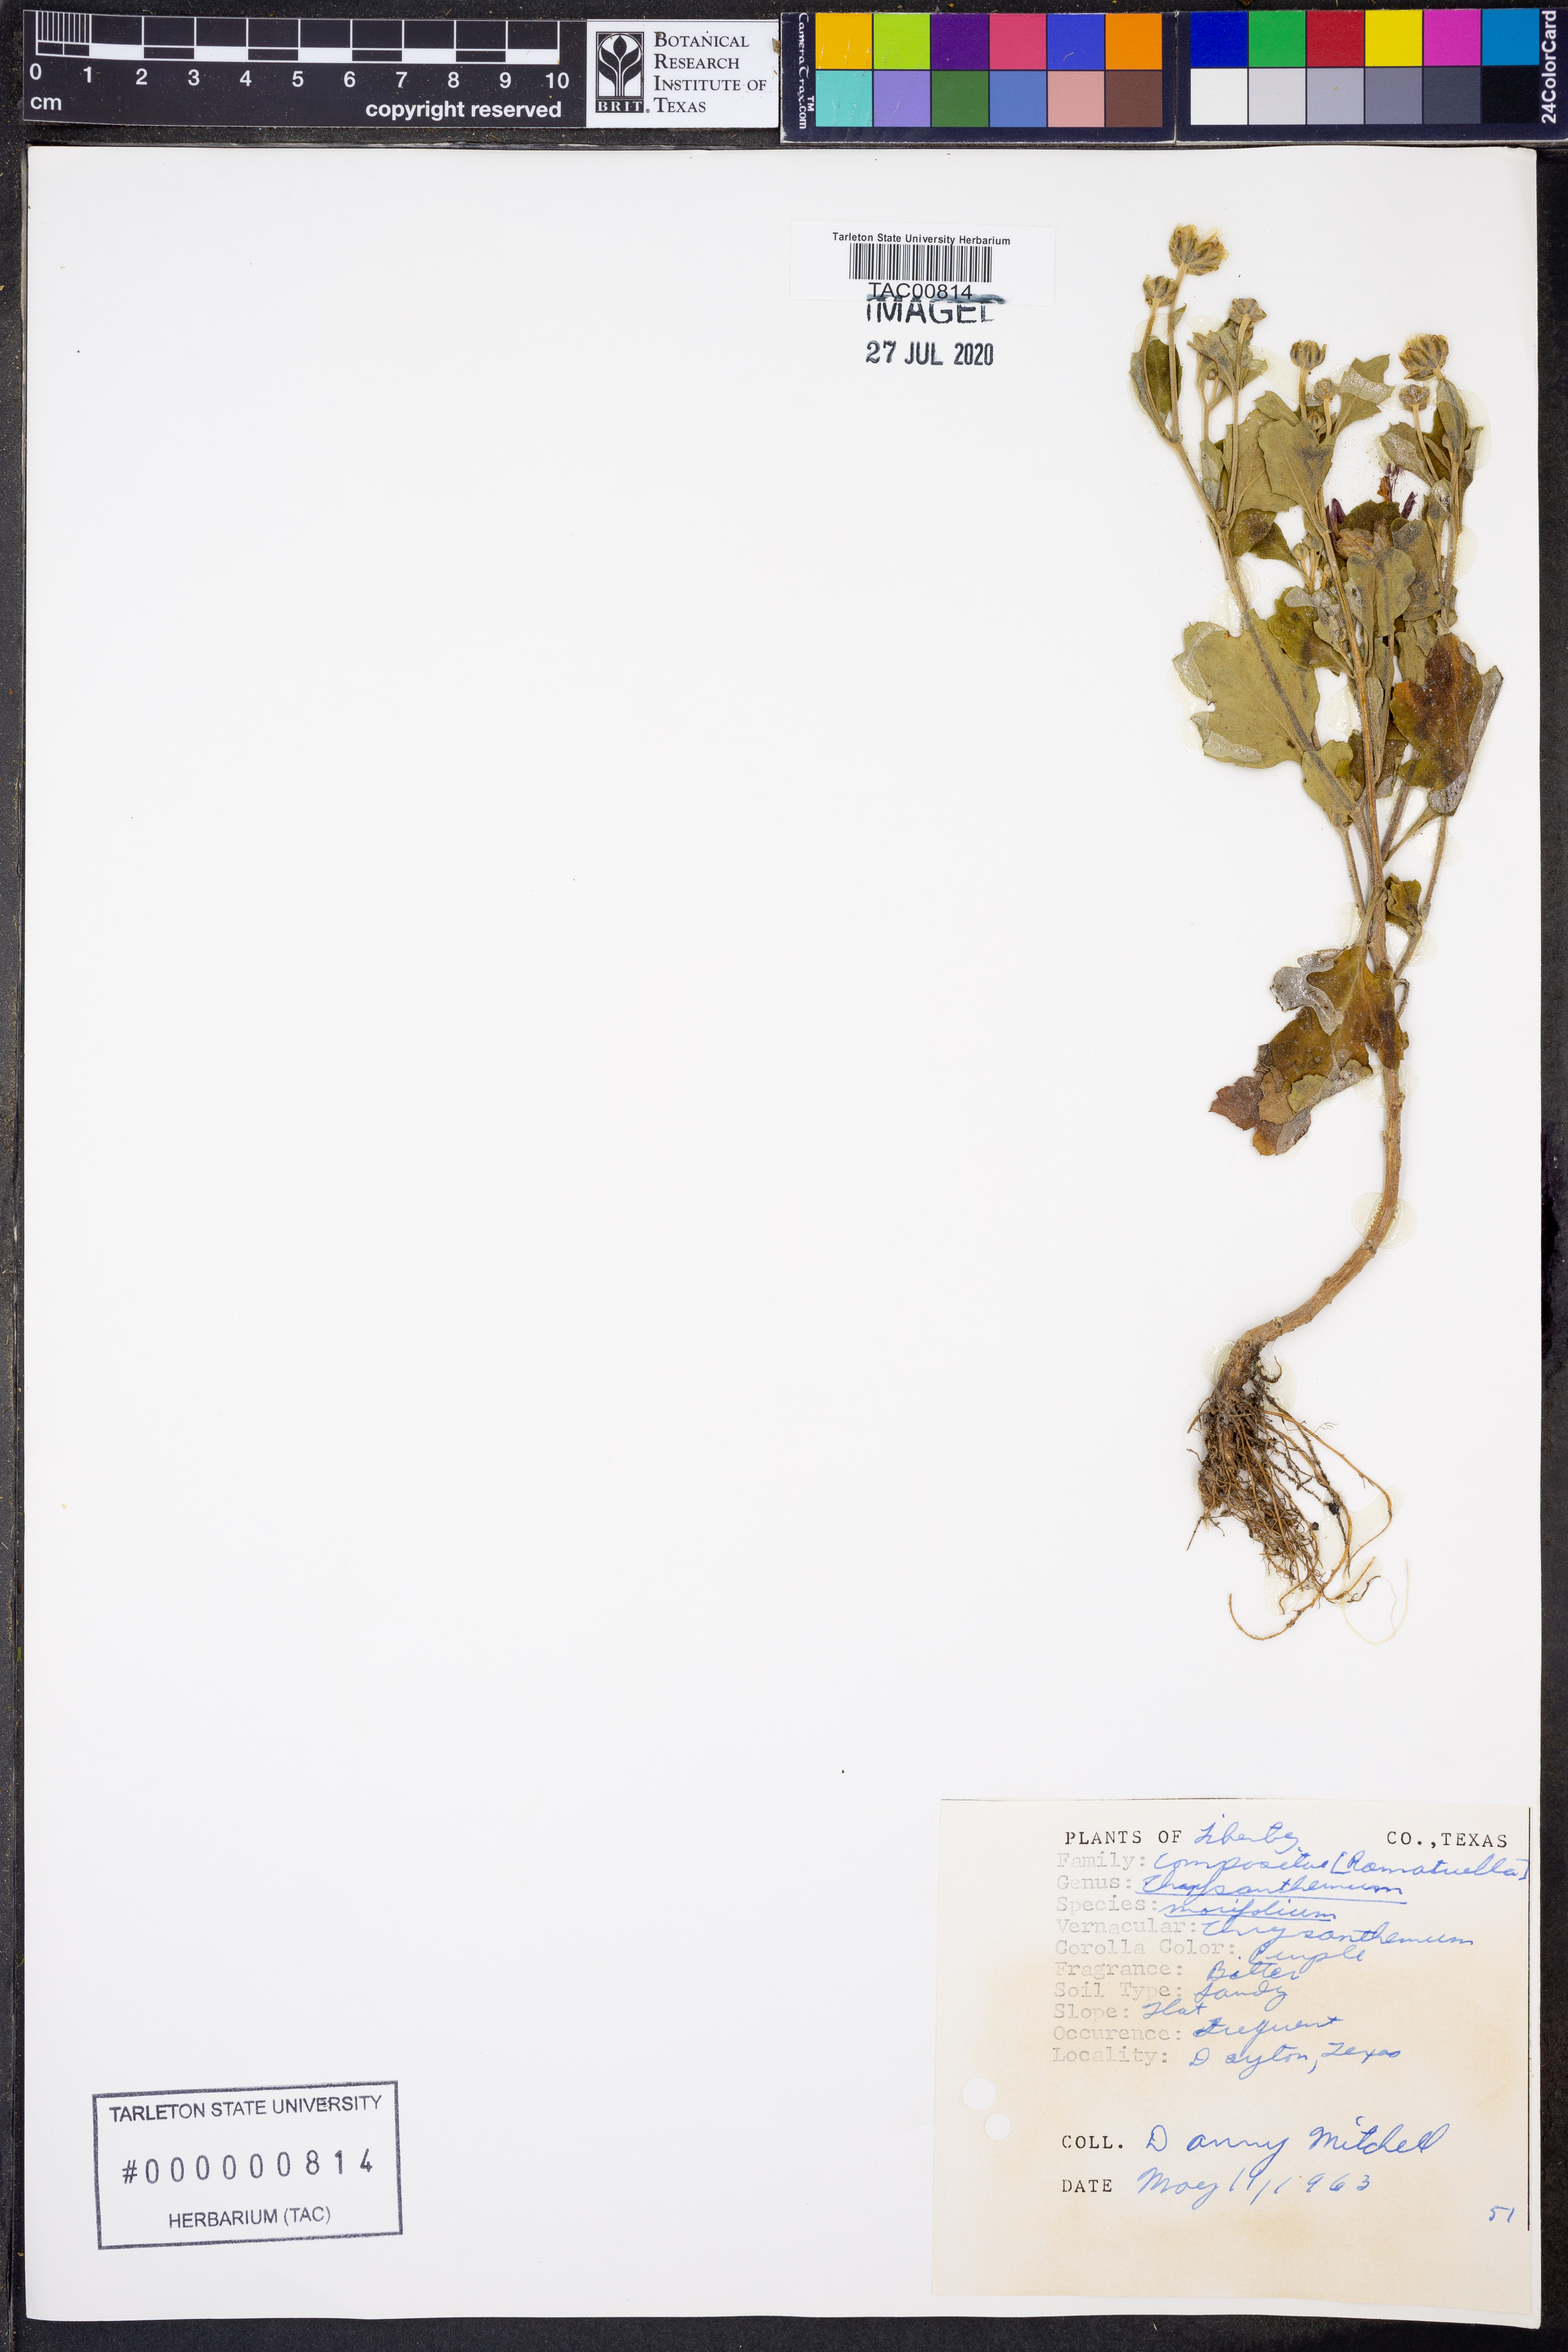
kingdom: Plantae
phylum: Tracheophyta
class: Magnoliopsida
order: Asterales
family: Asteraceae
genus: Chrysanthemum
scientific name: Chrysanthemum morifolium
